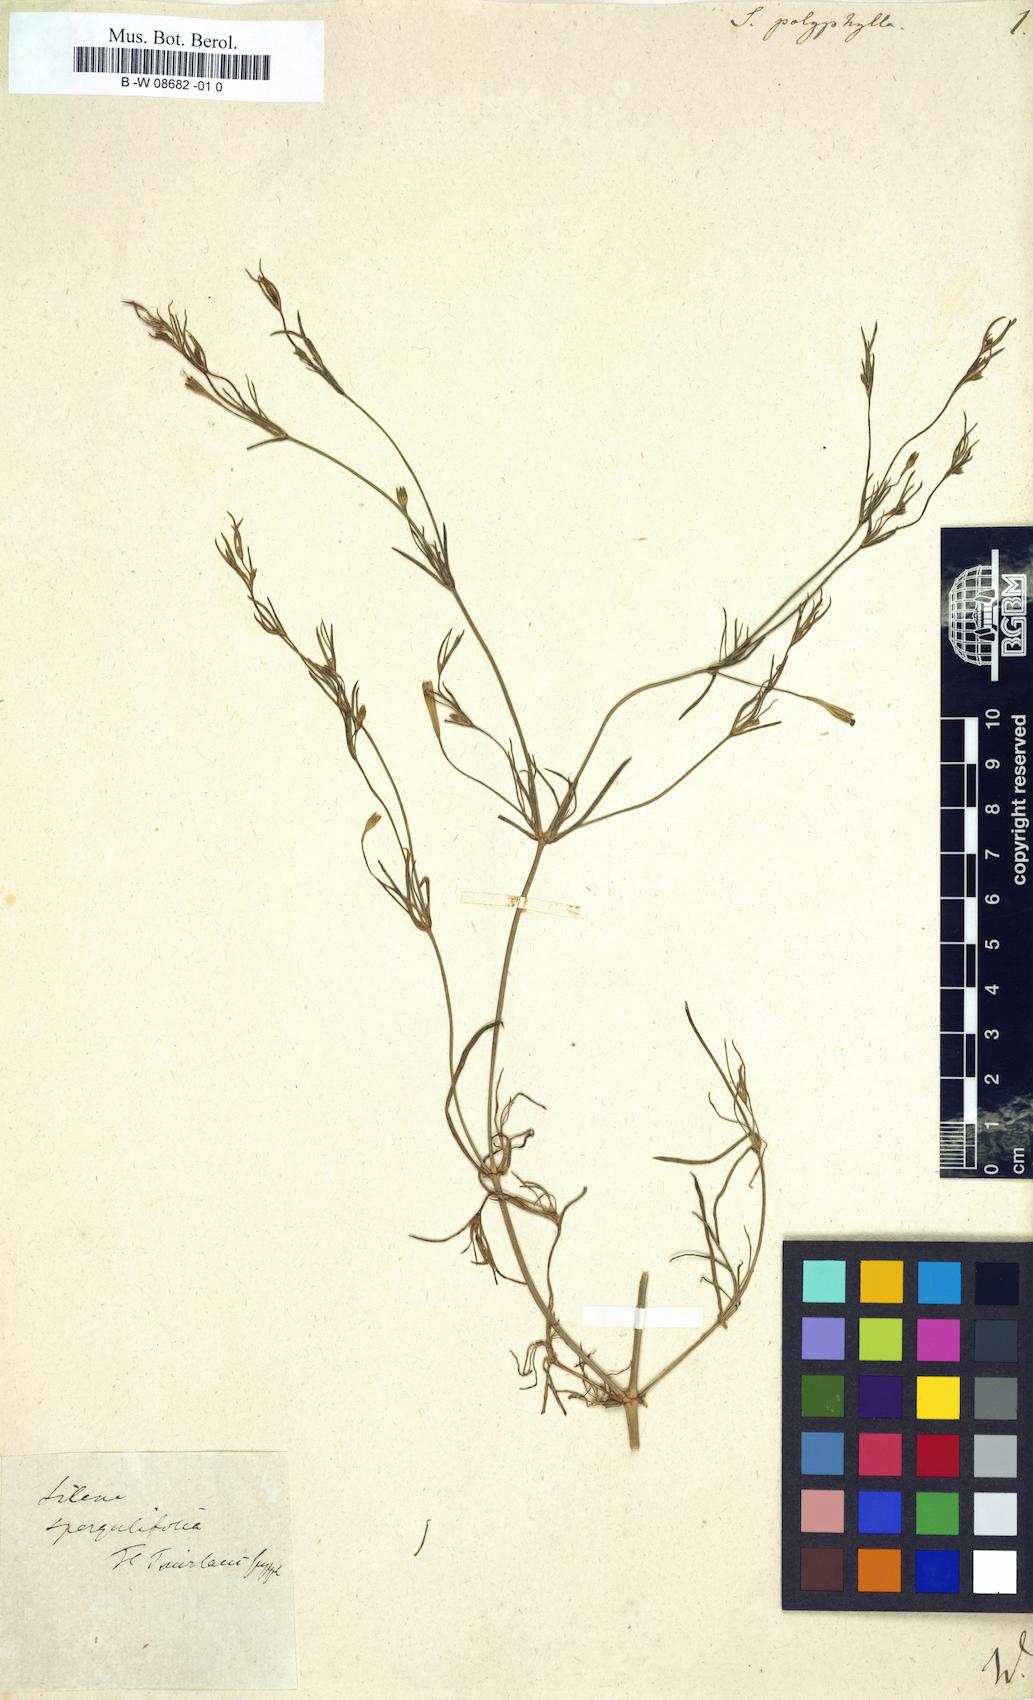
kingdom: Plantae
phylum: Tracheophyta
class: Magnoliopsida
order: Caryophyllales
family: Caryophyllaceae
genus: Silene
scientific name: Silene
